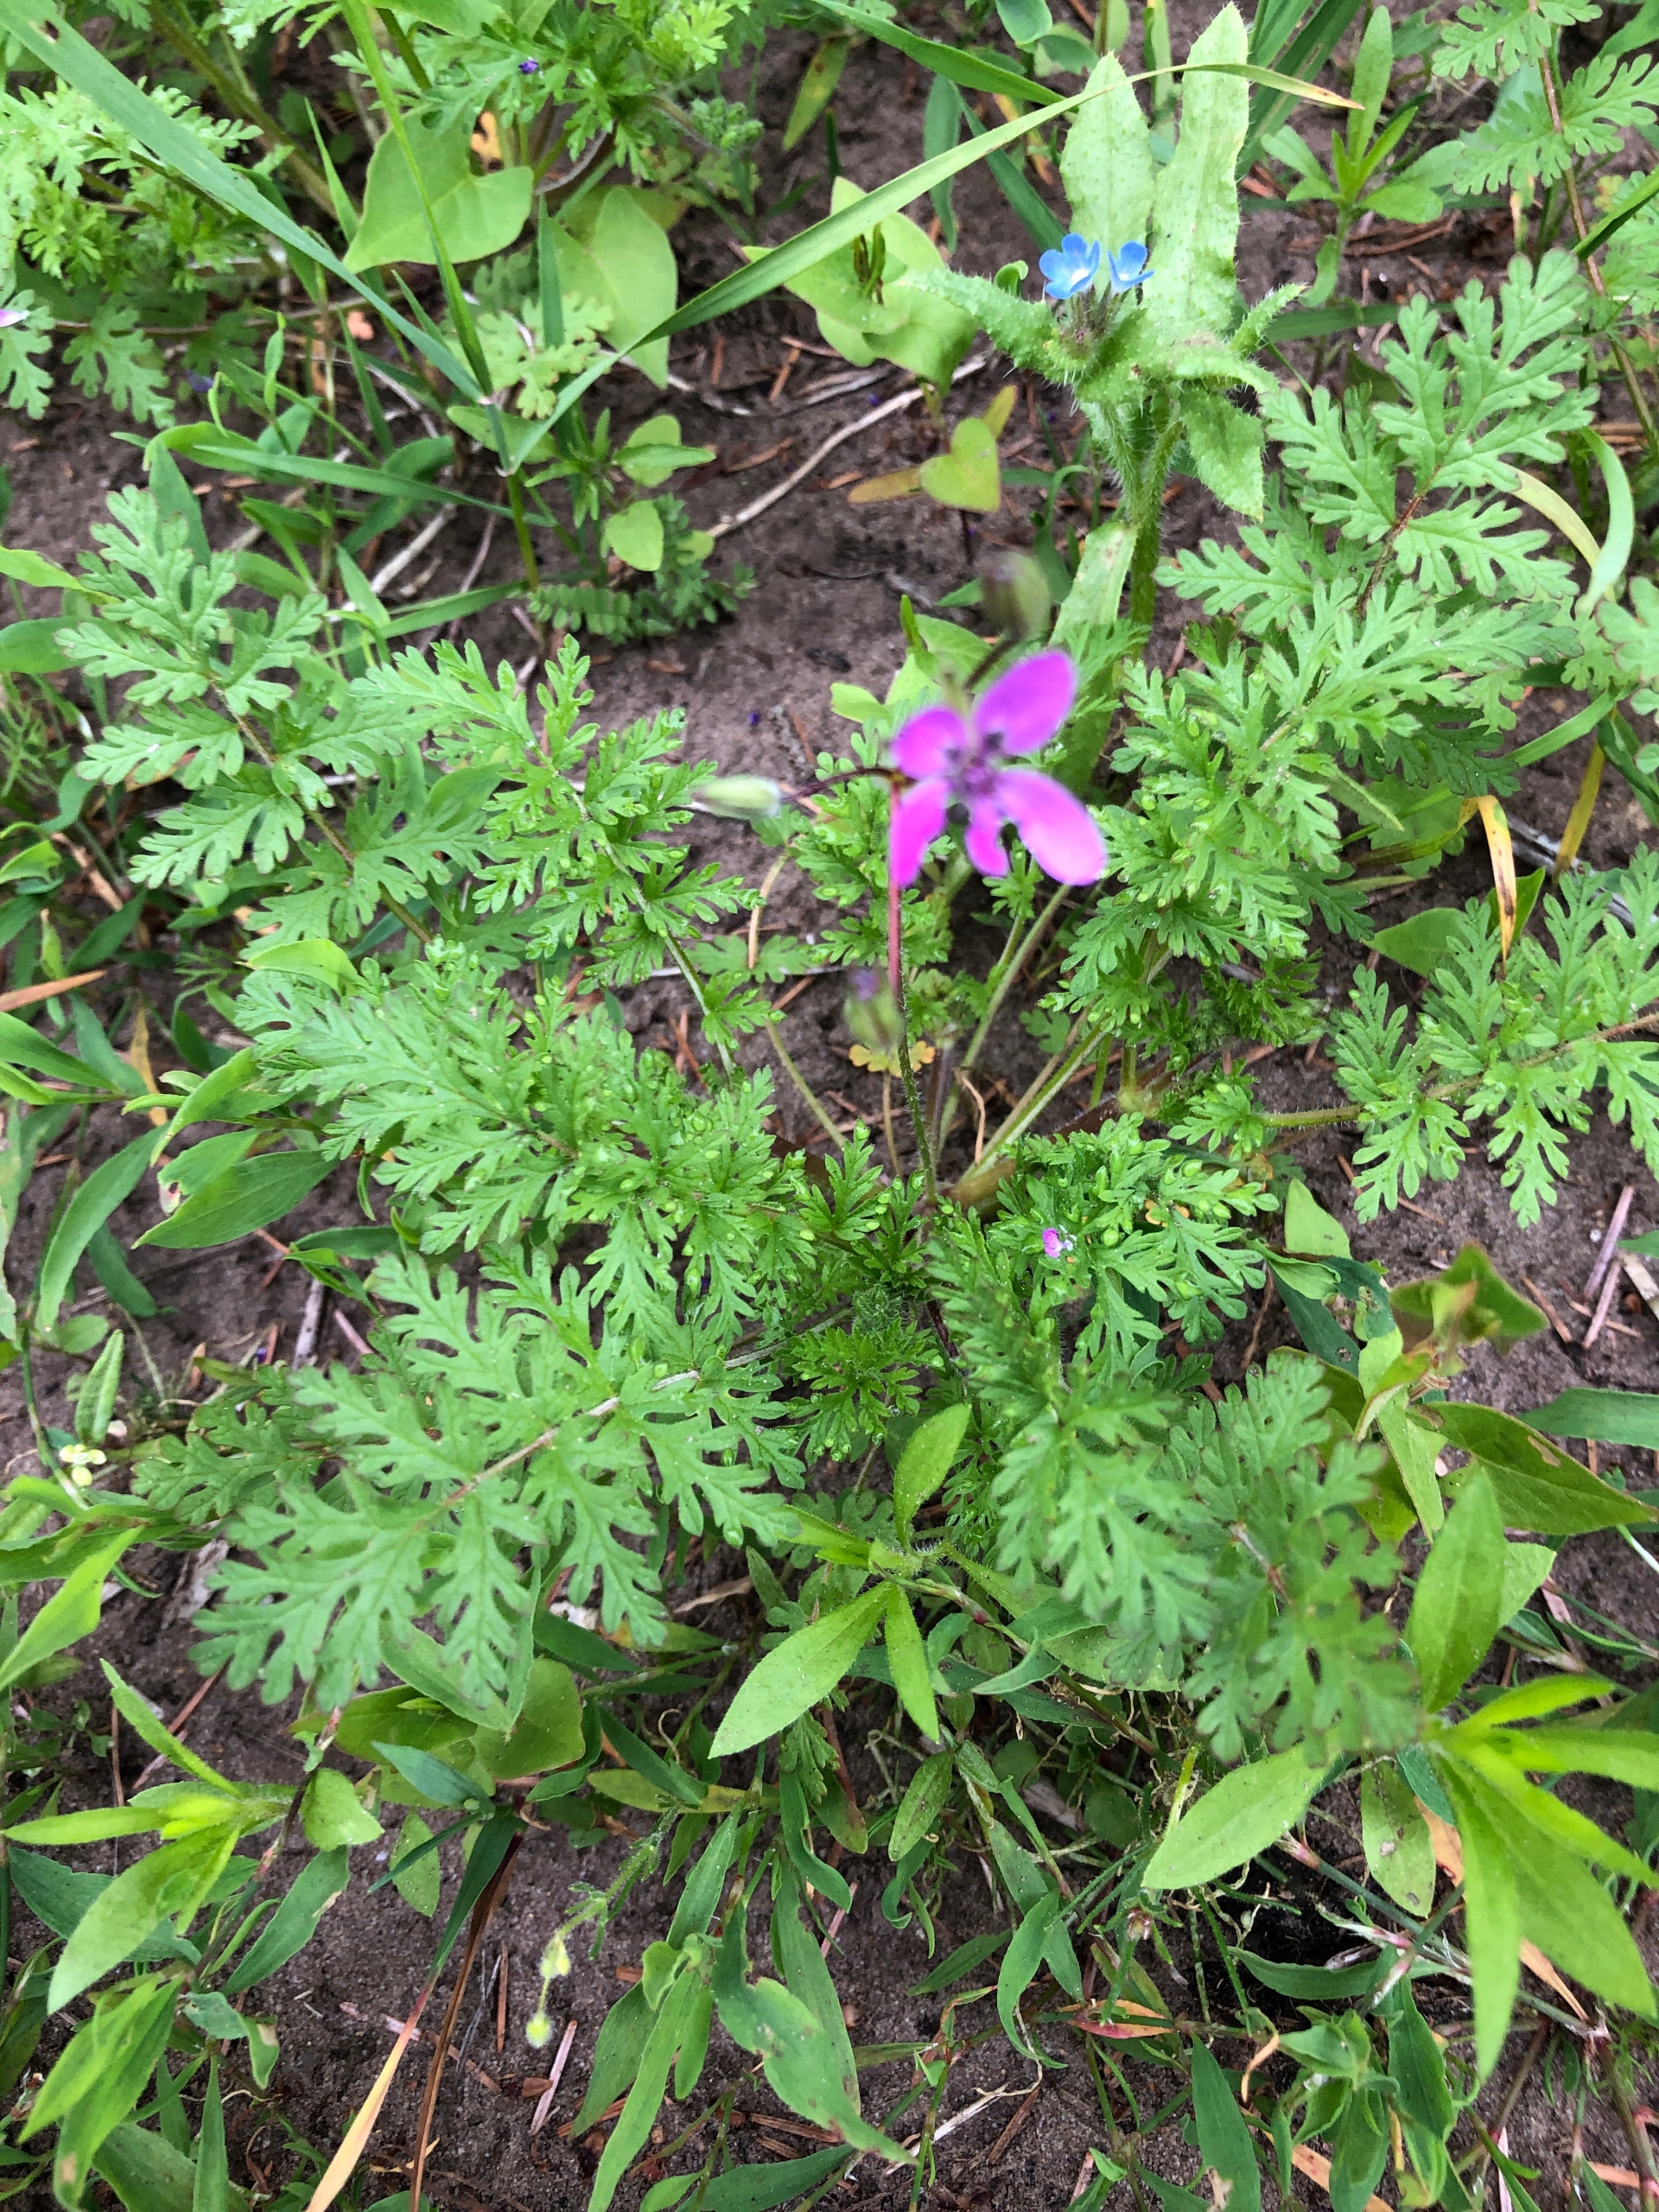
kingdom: Plantae
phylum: Tracheophyta
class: Magnoliopsida
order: Geraniales
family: Geraniaceae
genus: Erodium
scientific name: Erodium cicutarium
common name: Hejrenæb
